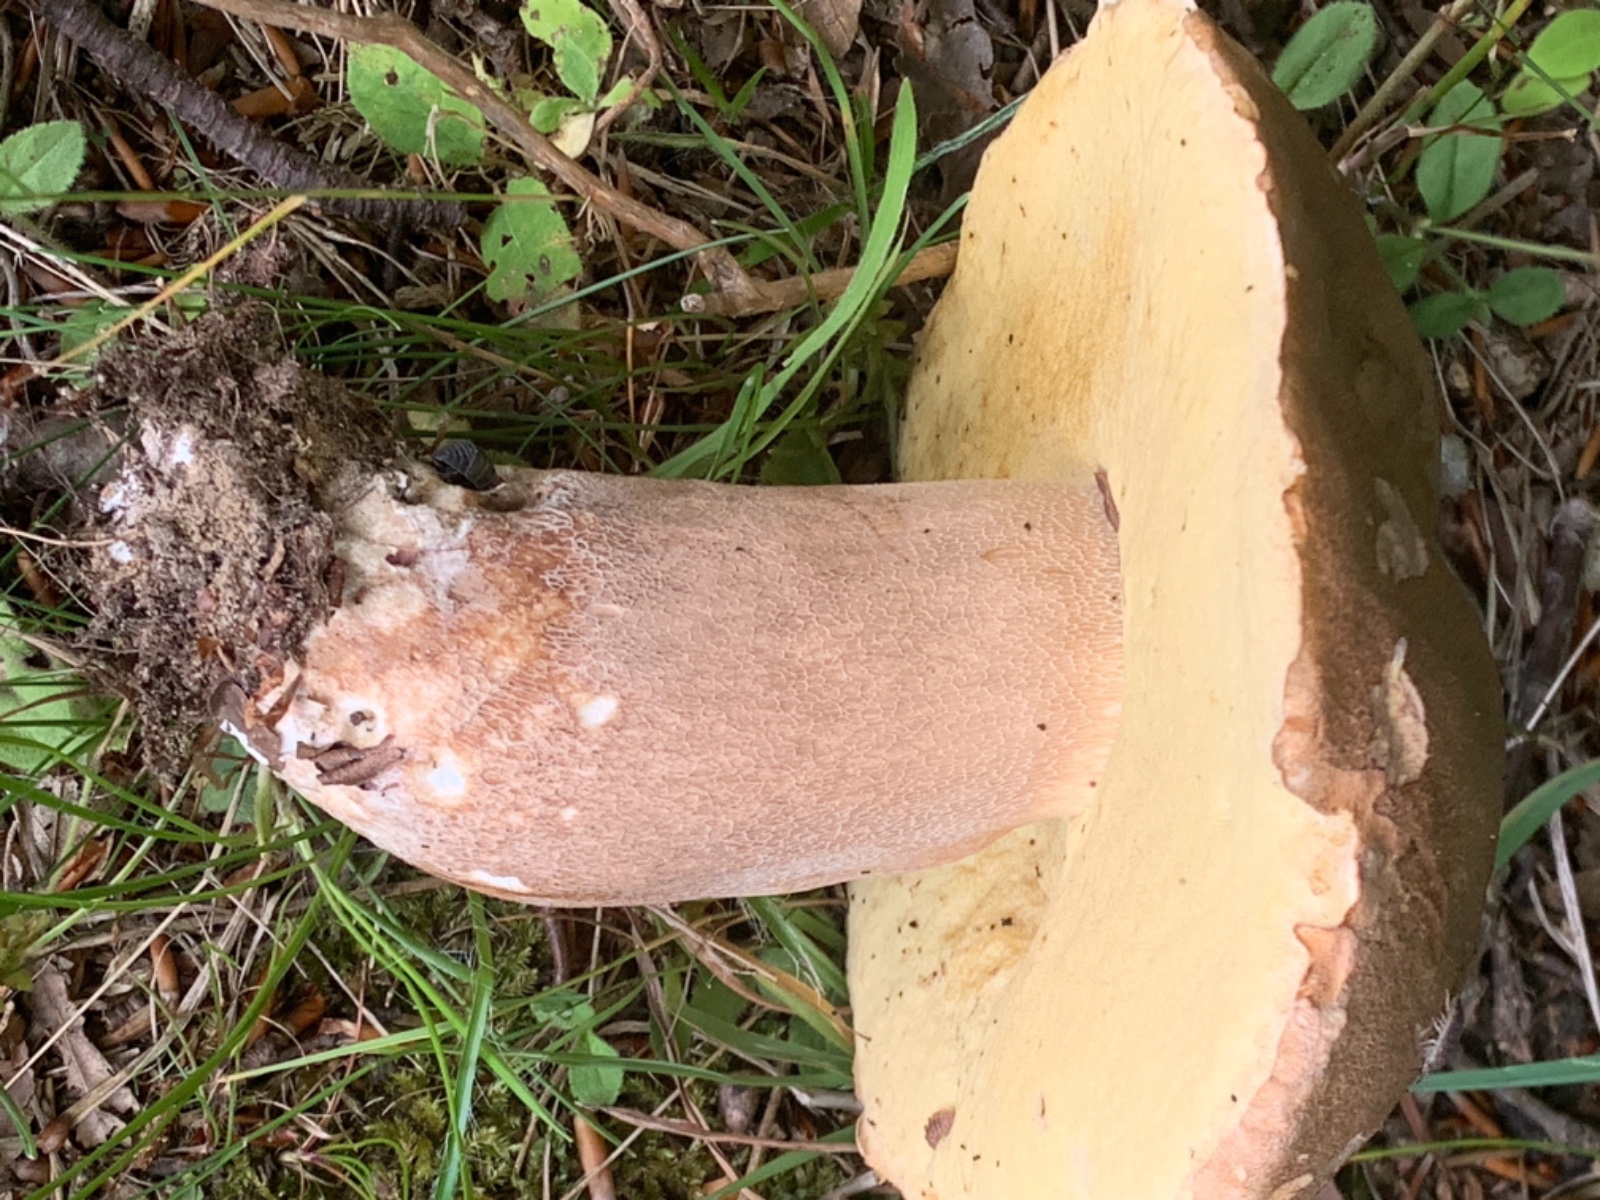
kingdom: Fungi
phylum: Basidiomycota
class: Agaricomycetes
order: Boletales
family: Boletaceae
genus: Boletus
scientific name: Boletus edulis
